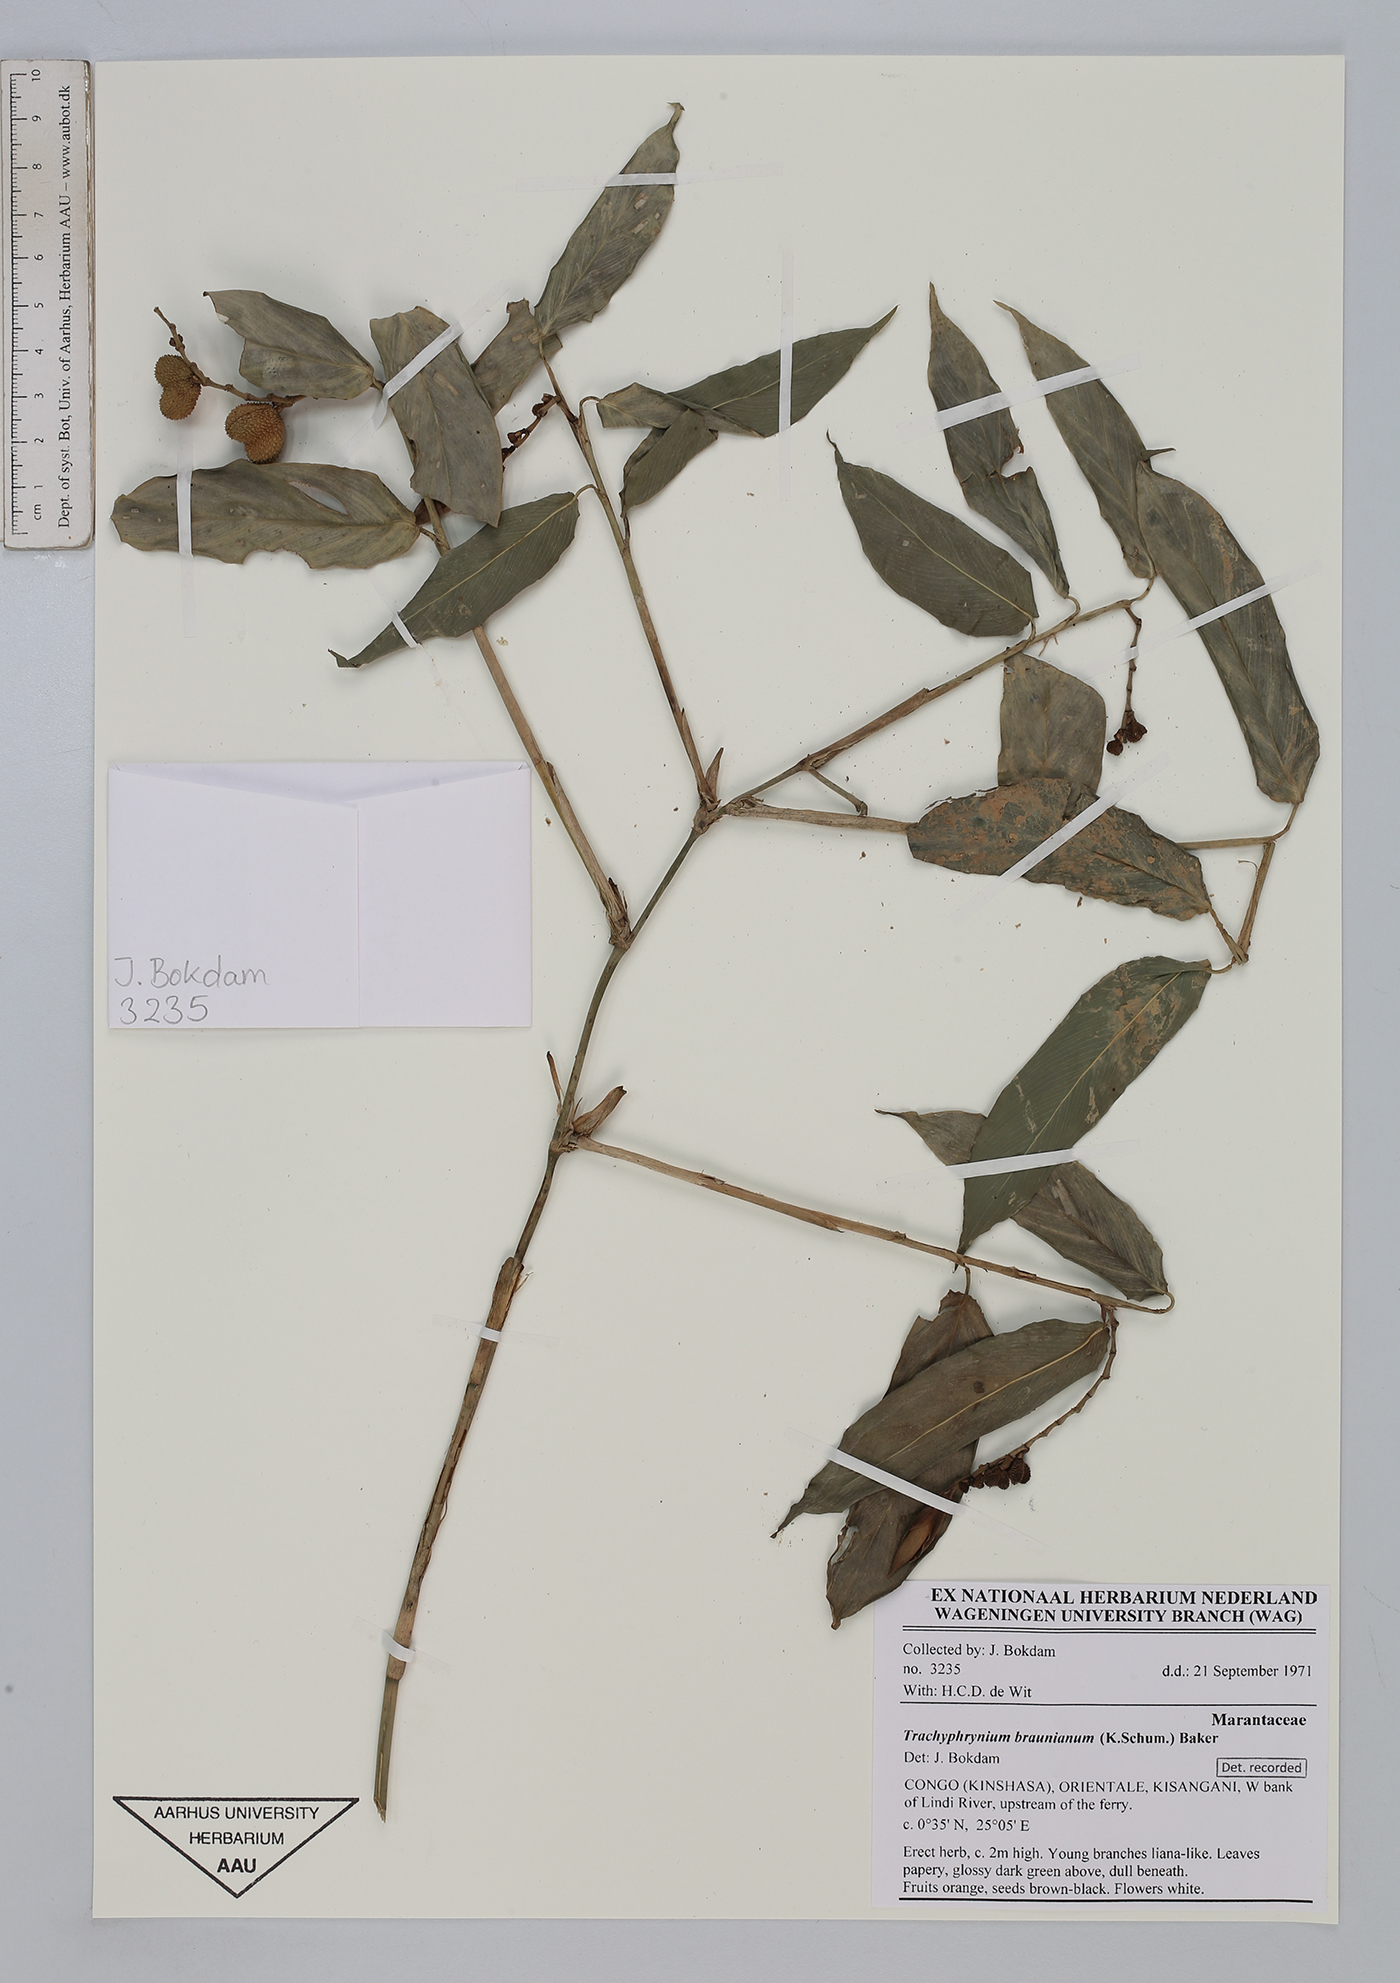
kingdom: Plantae
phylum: Tracheophyta
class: Liliopsida
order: Zingiberales
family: Marantaceae
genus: Trachyphrynium
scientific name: Trachyphrynium braunianum
